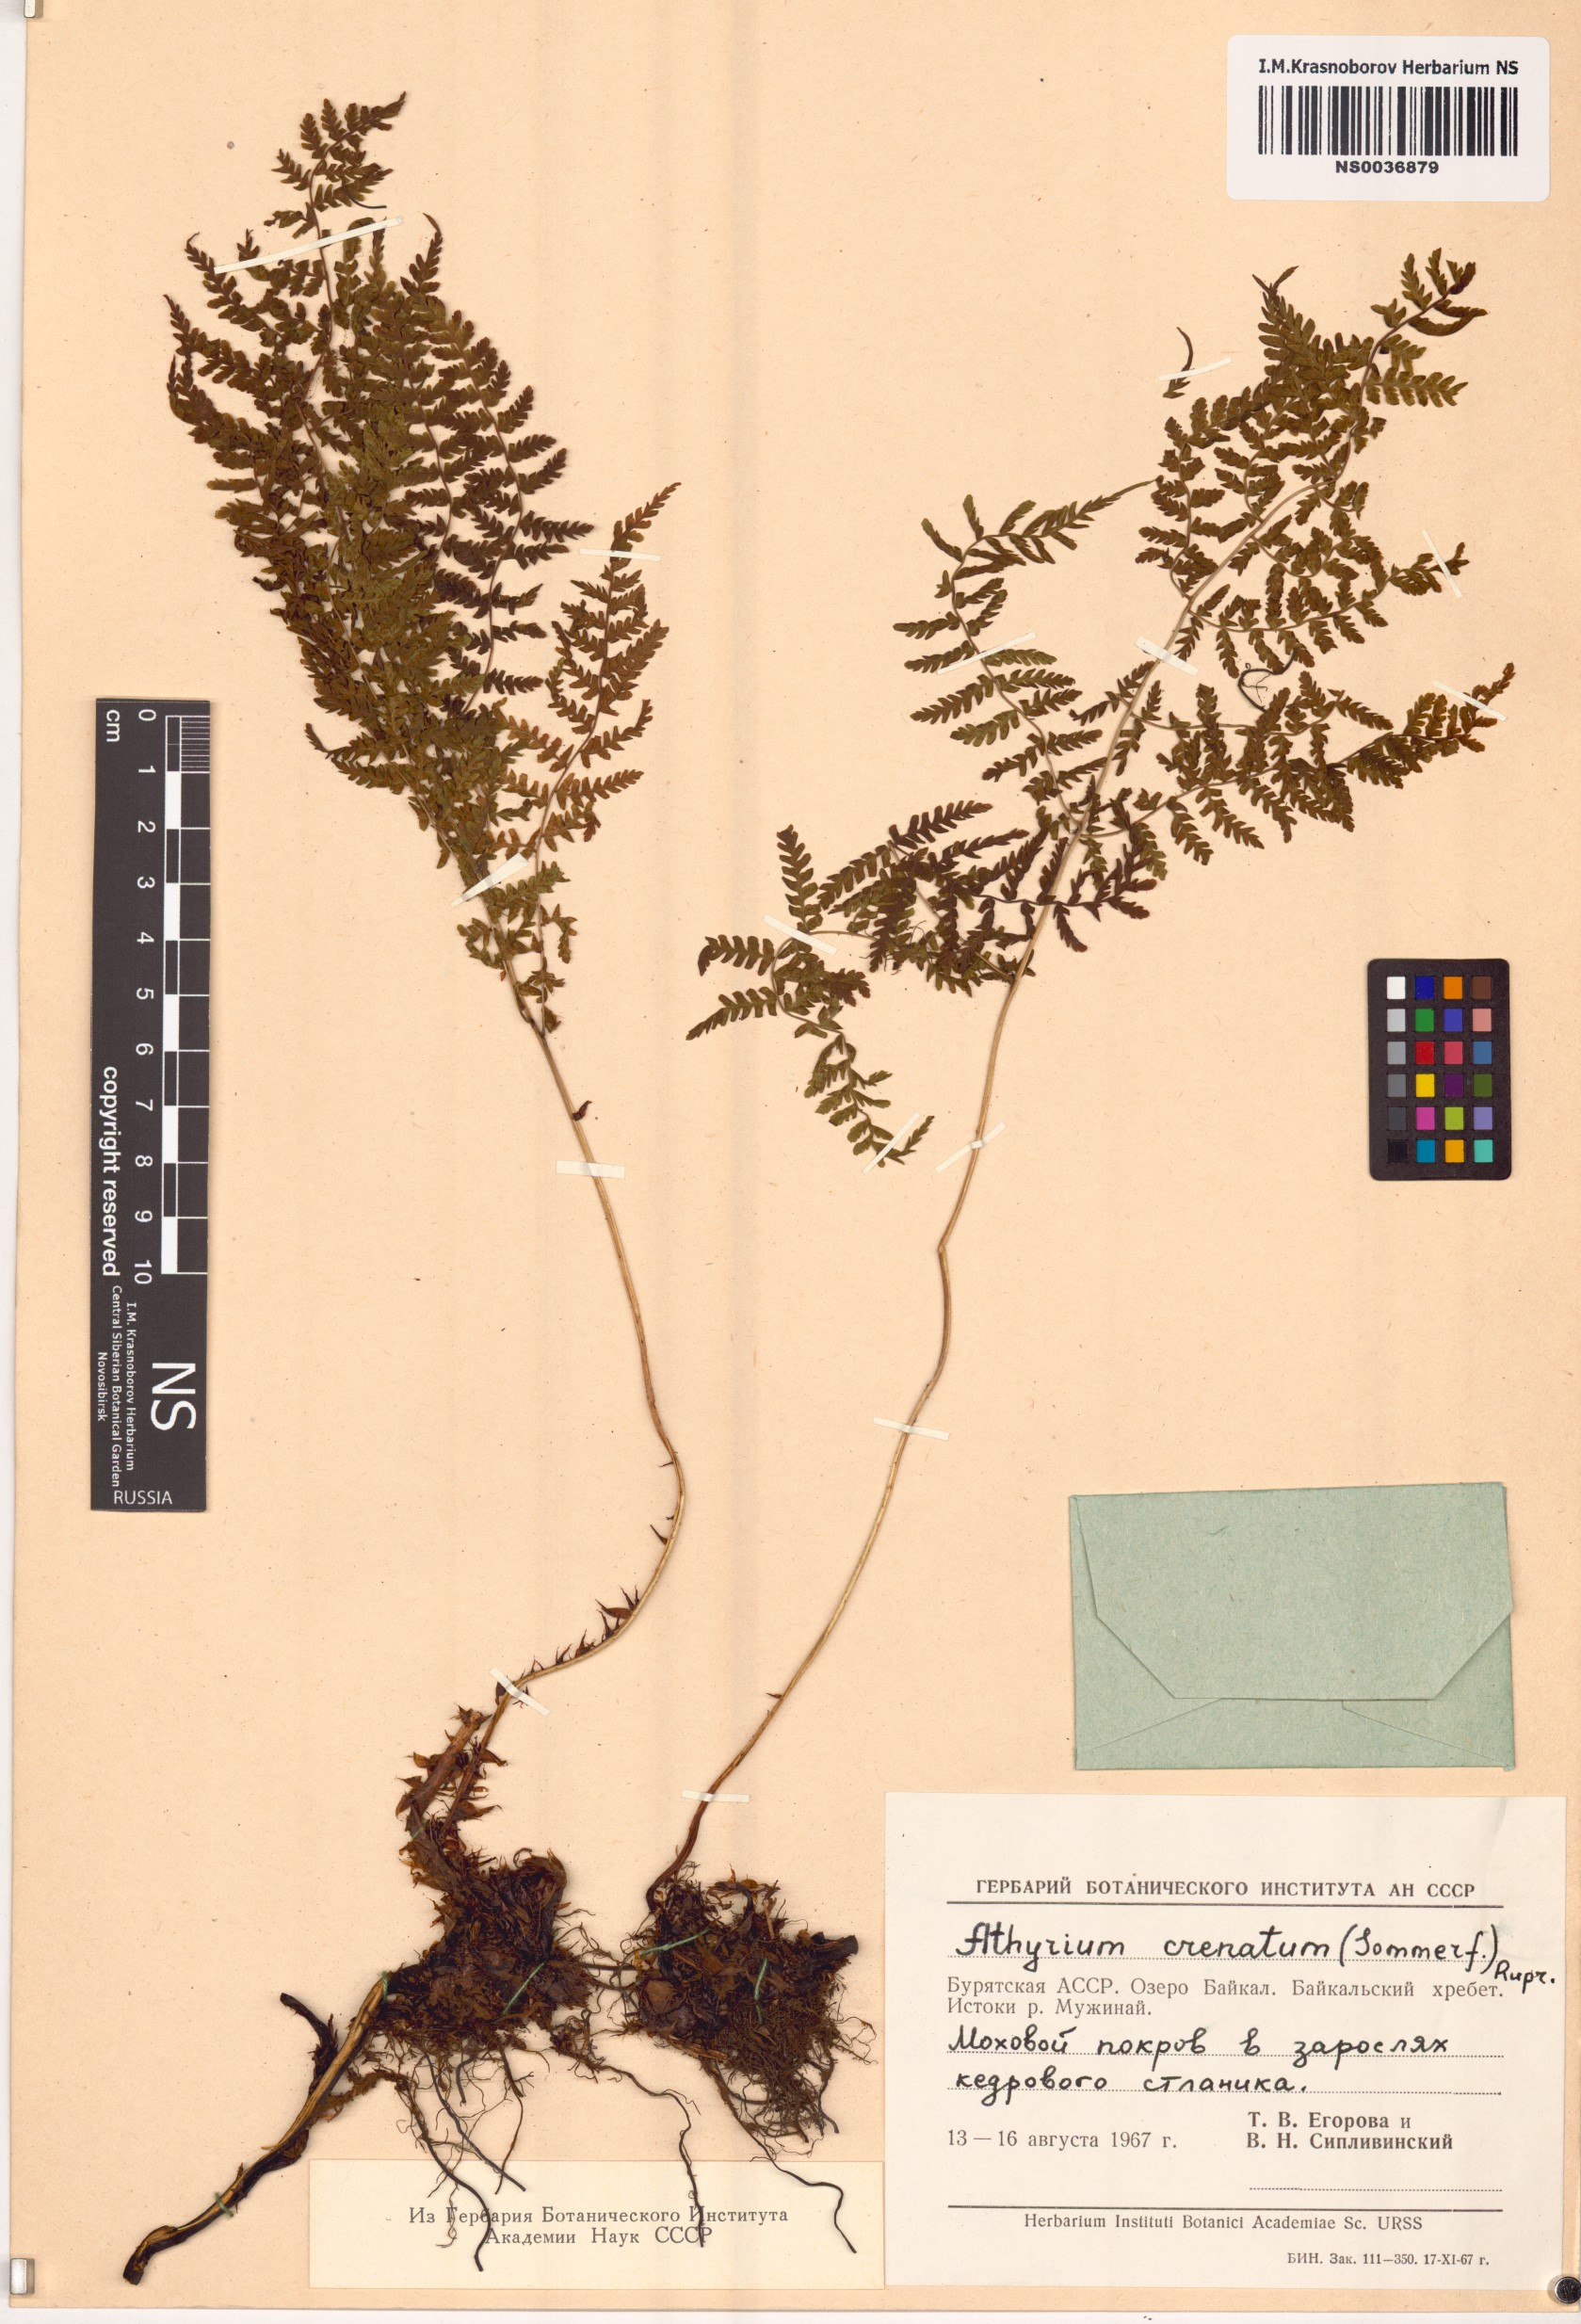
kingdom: Plantae
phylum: Tracheophyta
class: Polypodiopsida
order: Polypodiales
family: Athyriaceae
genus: Diplazium
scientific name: Diplazium sibiricum
